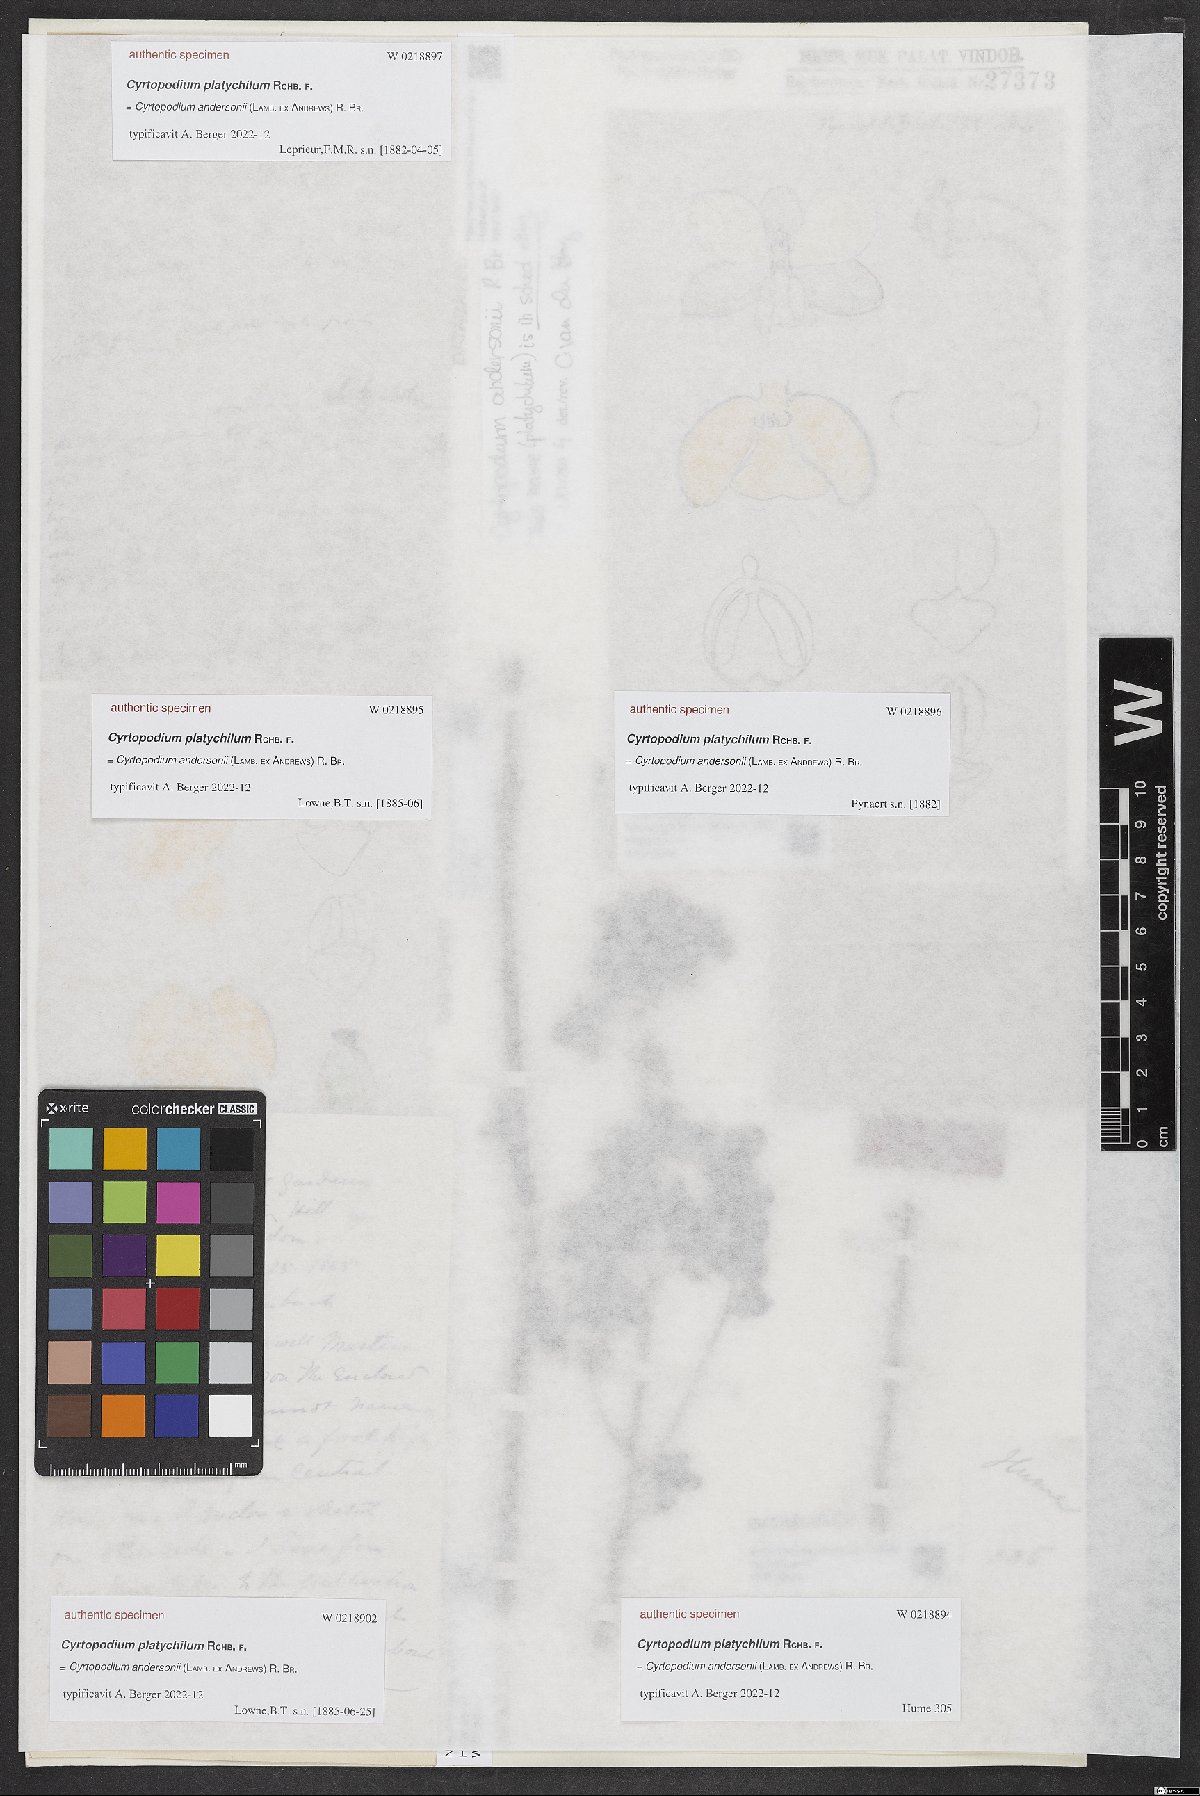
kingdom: Plantae
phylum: Tracheophyta
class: Liliopsida
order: Asparagales
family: Orchidaceae
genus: Cyrtopodium
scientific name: Cyrtopodium
